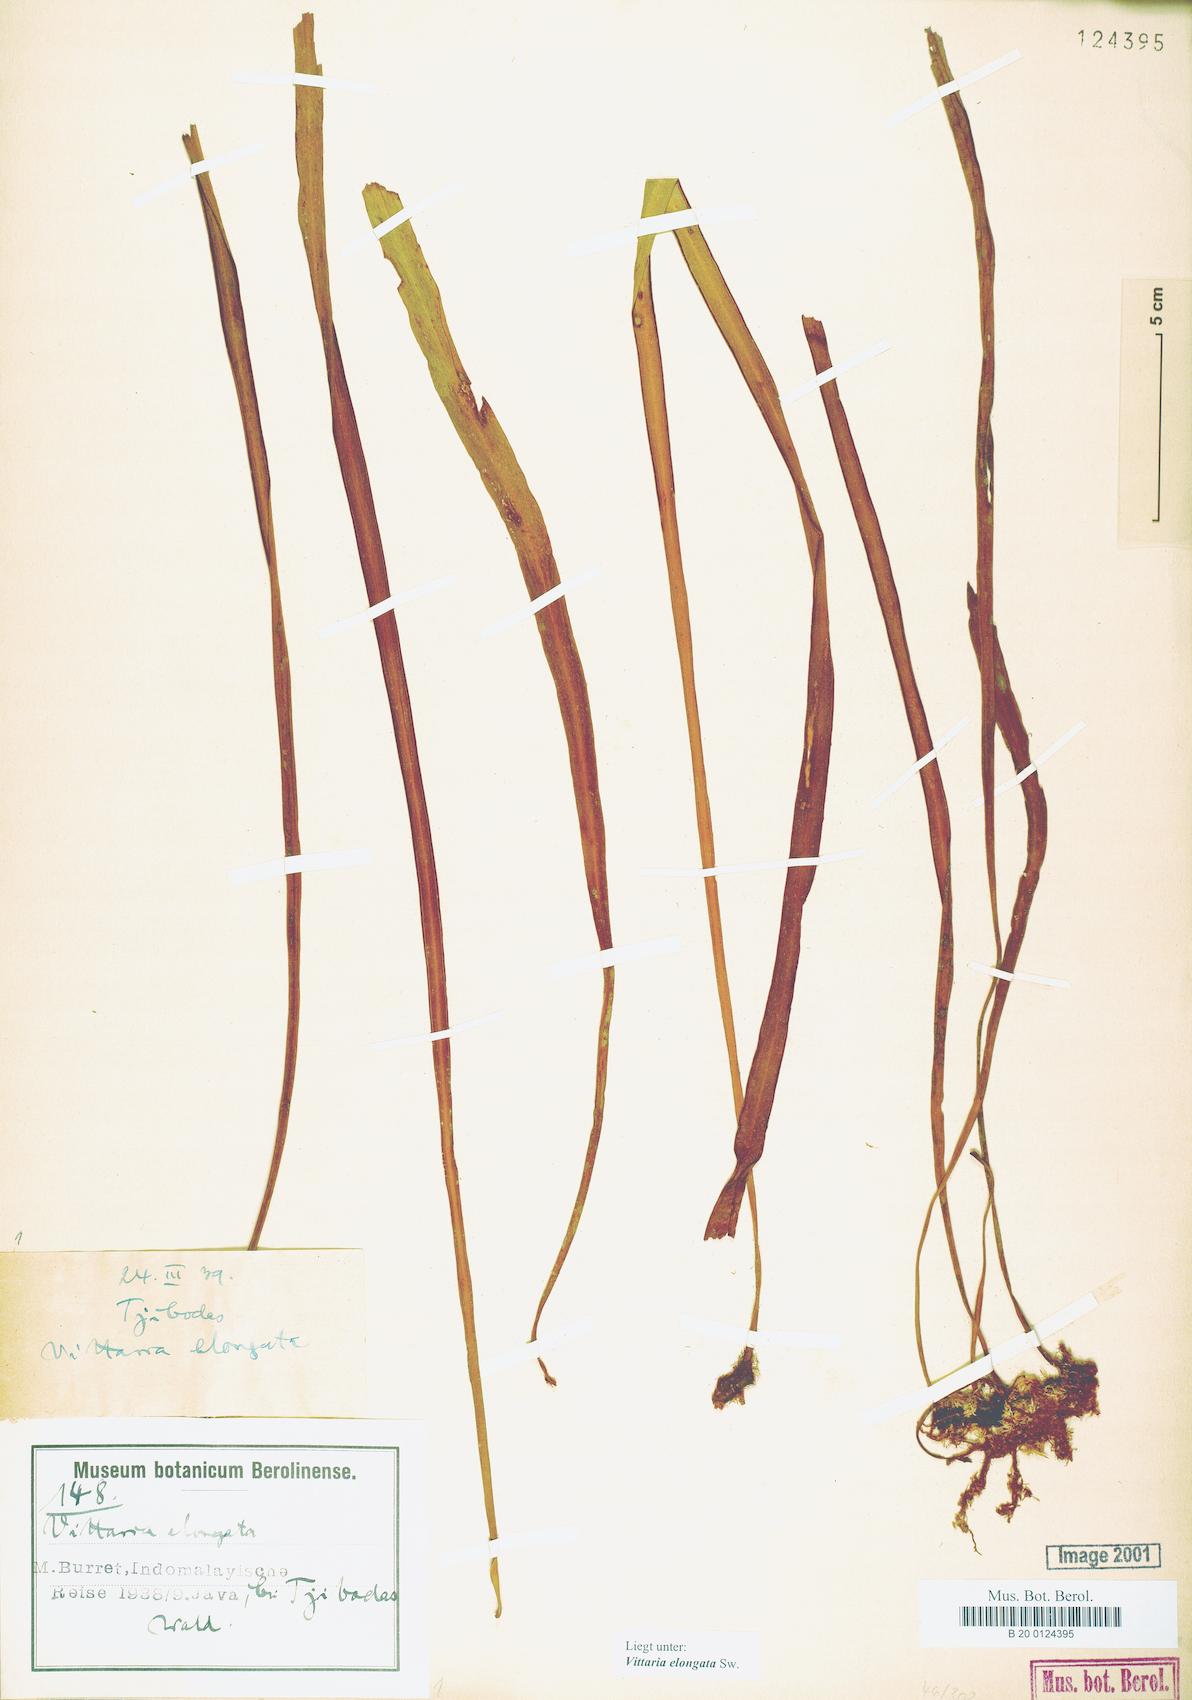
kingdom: Plantae
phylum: Tracheophyta
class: Polypodiopsida
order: Polypodiales
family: Pteridaceae
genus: Haplopteris
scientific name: Haplopteris elongata
